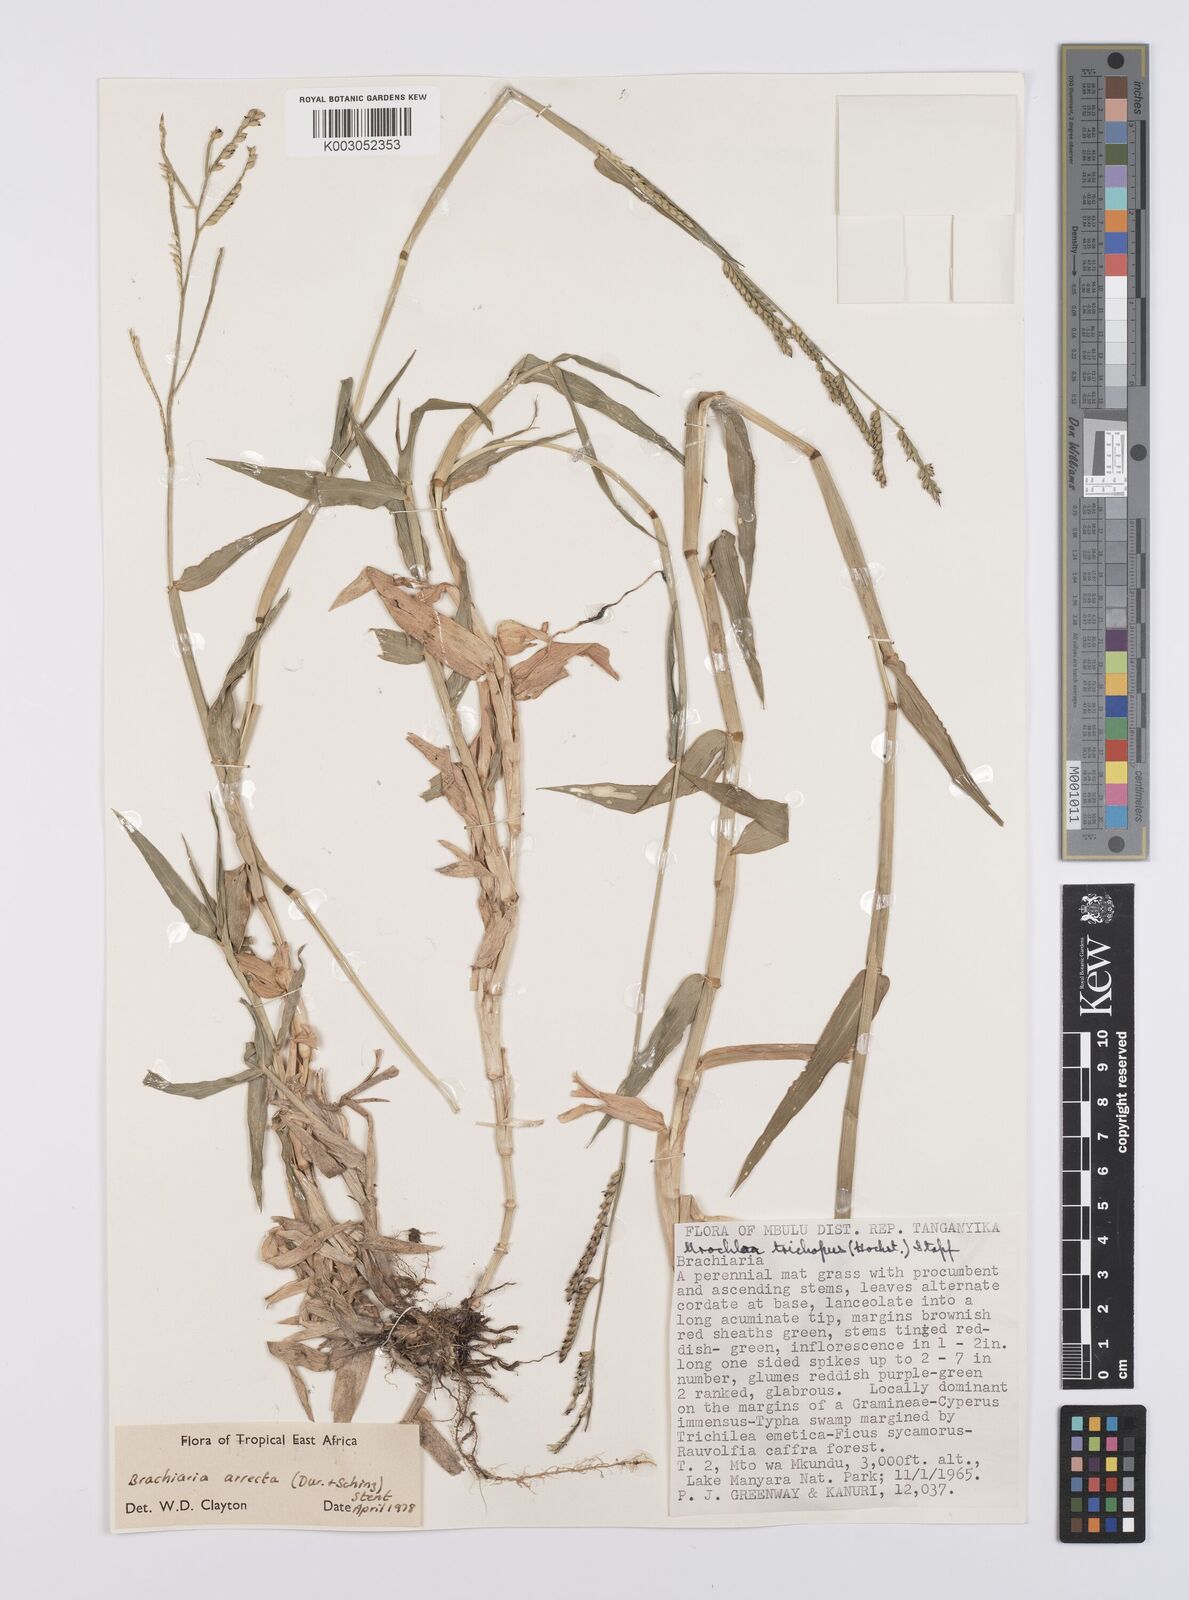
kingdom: Plantae
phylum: Tracheophyta
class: Liliopsida
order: Poales
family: Poaceae
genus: Urochloa
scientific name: Urochloa arrecta
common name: African signalgrass
